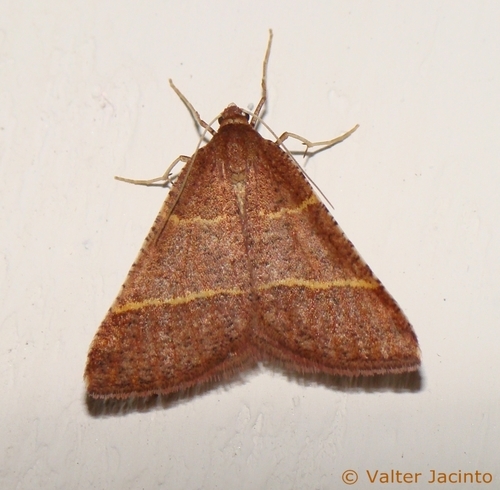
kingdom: Animalia
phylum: Arthropoda
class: Insecta
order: Lepidoptera
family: Pterophoridae
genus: Pterophorus
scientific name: Pterophorus Petrophora narbonea
